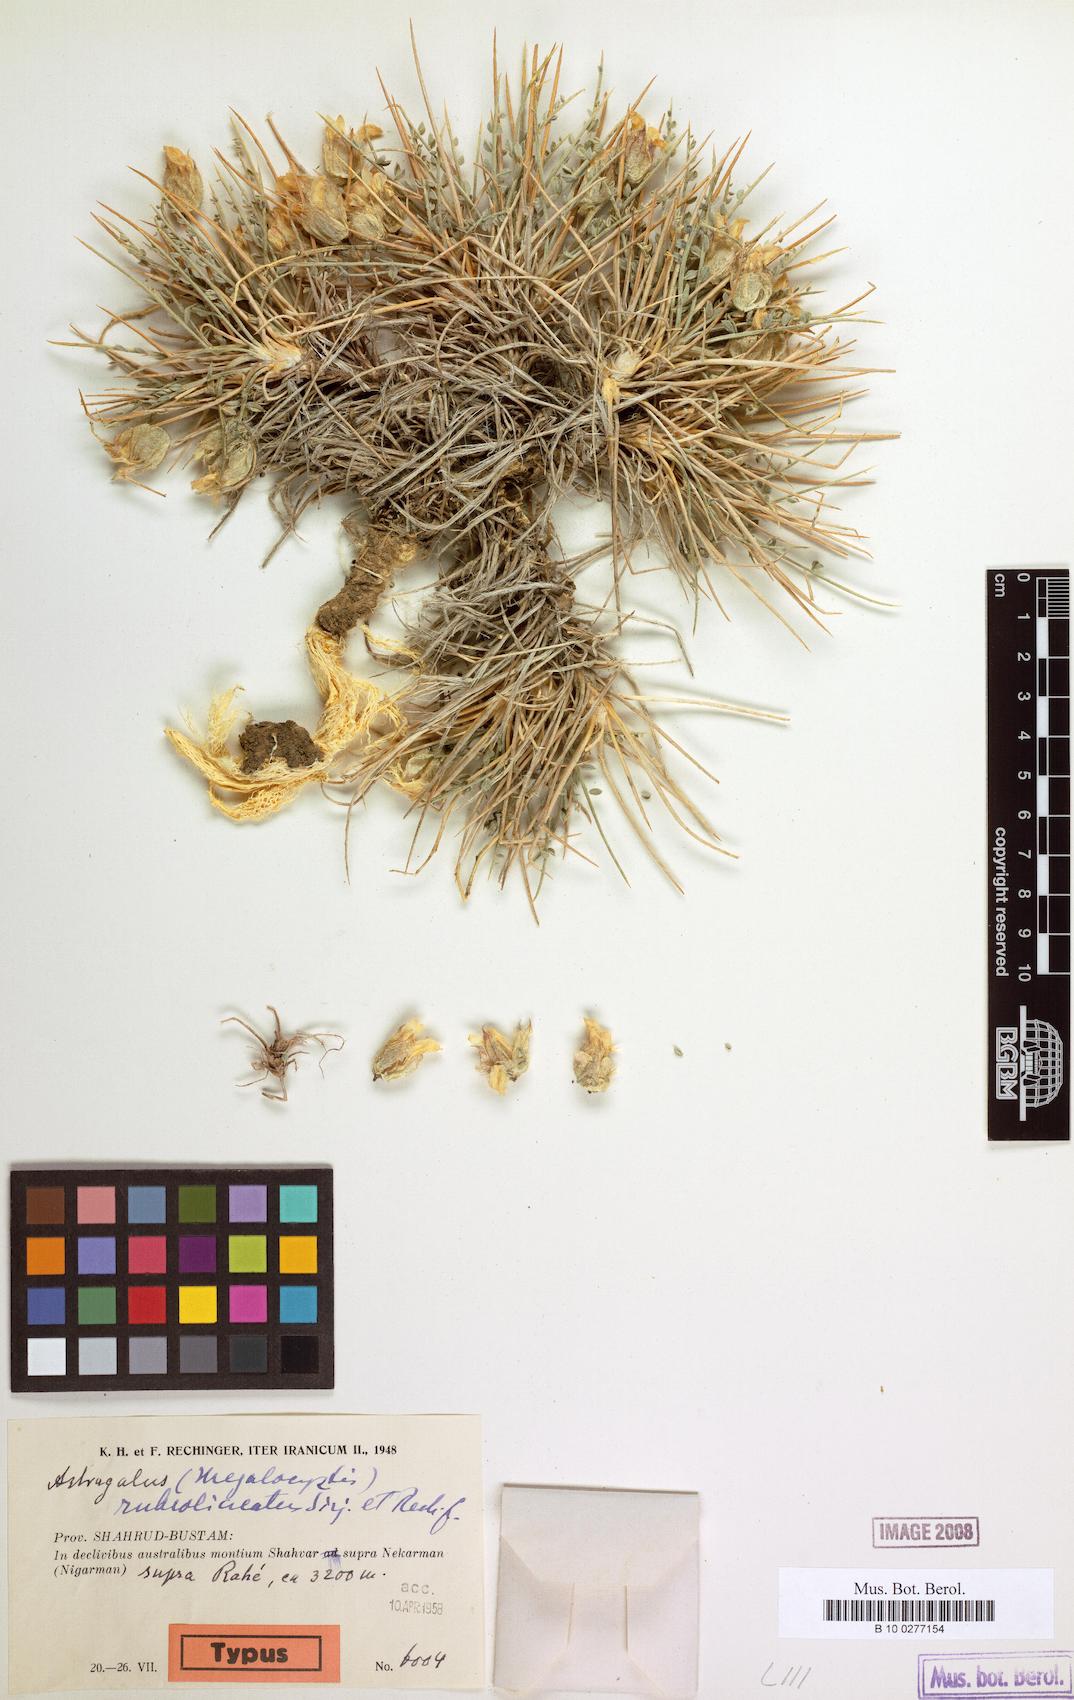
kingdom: Plantae
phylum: Tracheophyta
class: Magnoliopsida
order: Fabales
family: Fabaceae
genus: Astragalus
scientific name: Astragalus rubrolineatus
